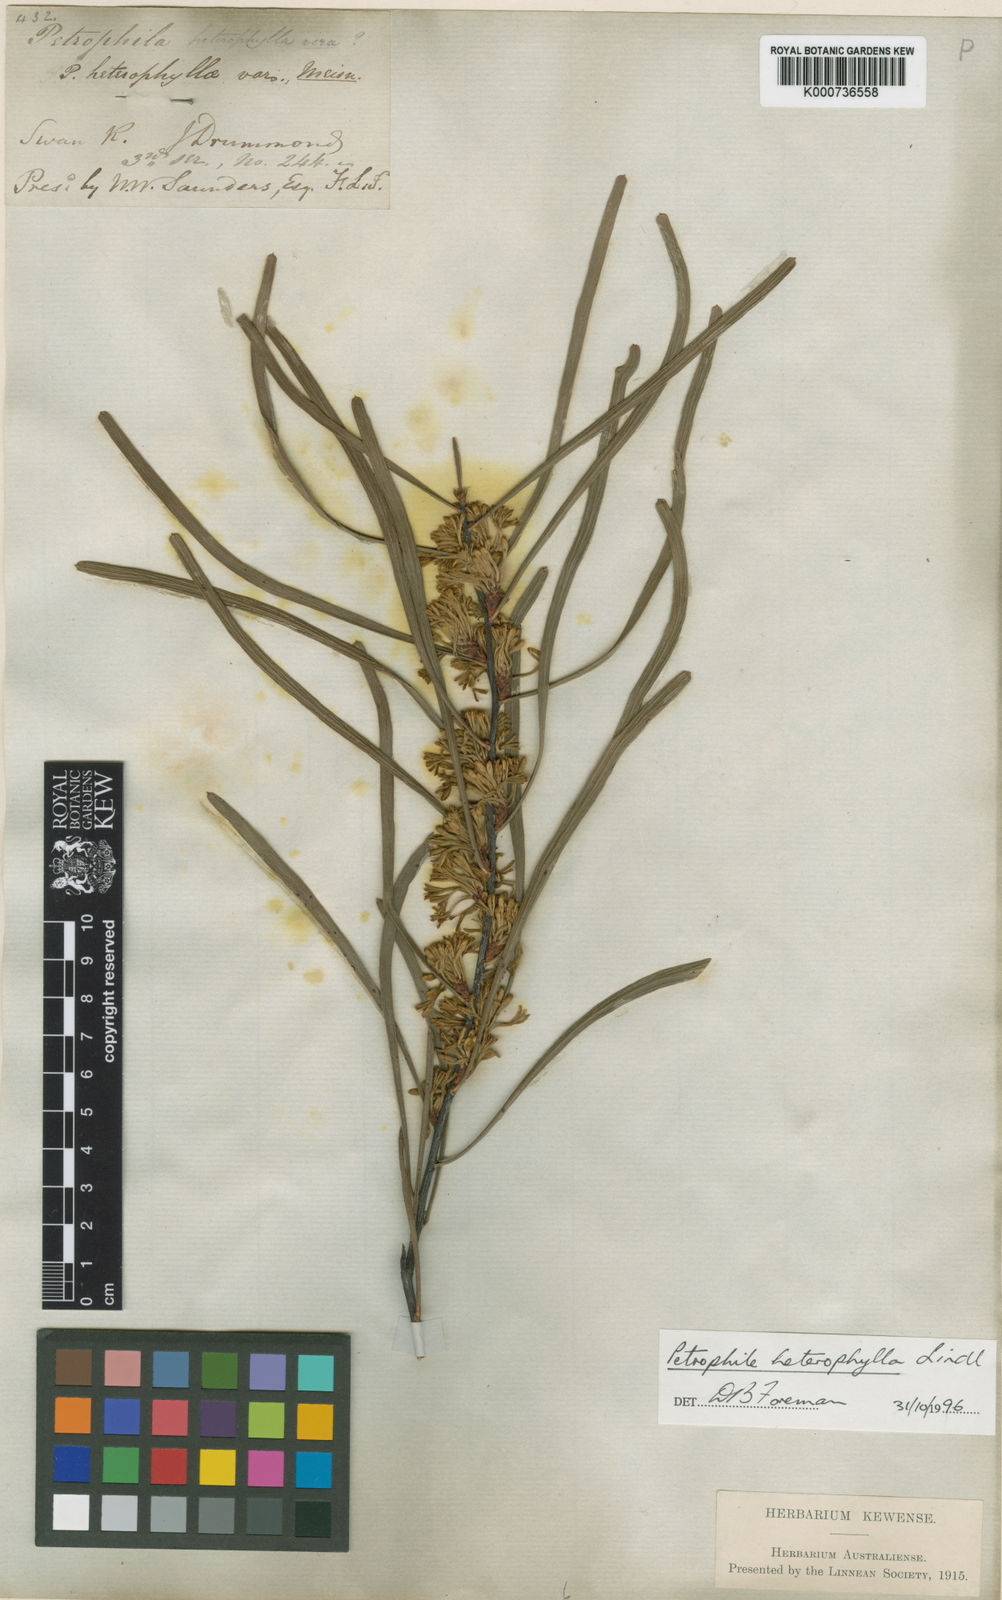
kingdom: Plantae
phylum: Tracheophyta
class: Magnoliopsida
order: Proteales
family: Proteaceae
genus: Petrophile
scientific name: Petrophile heterophylla
